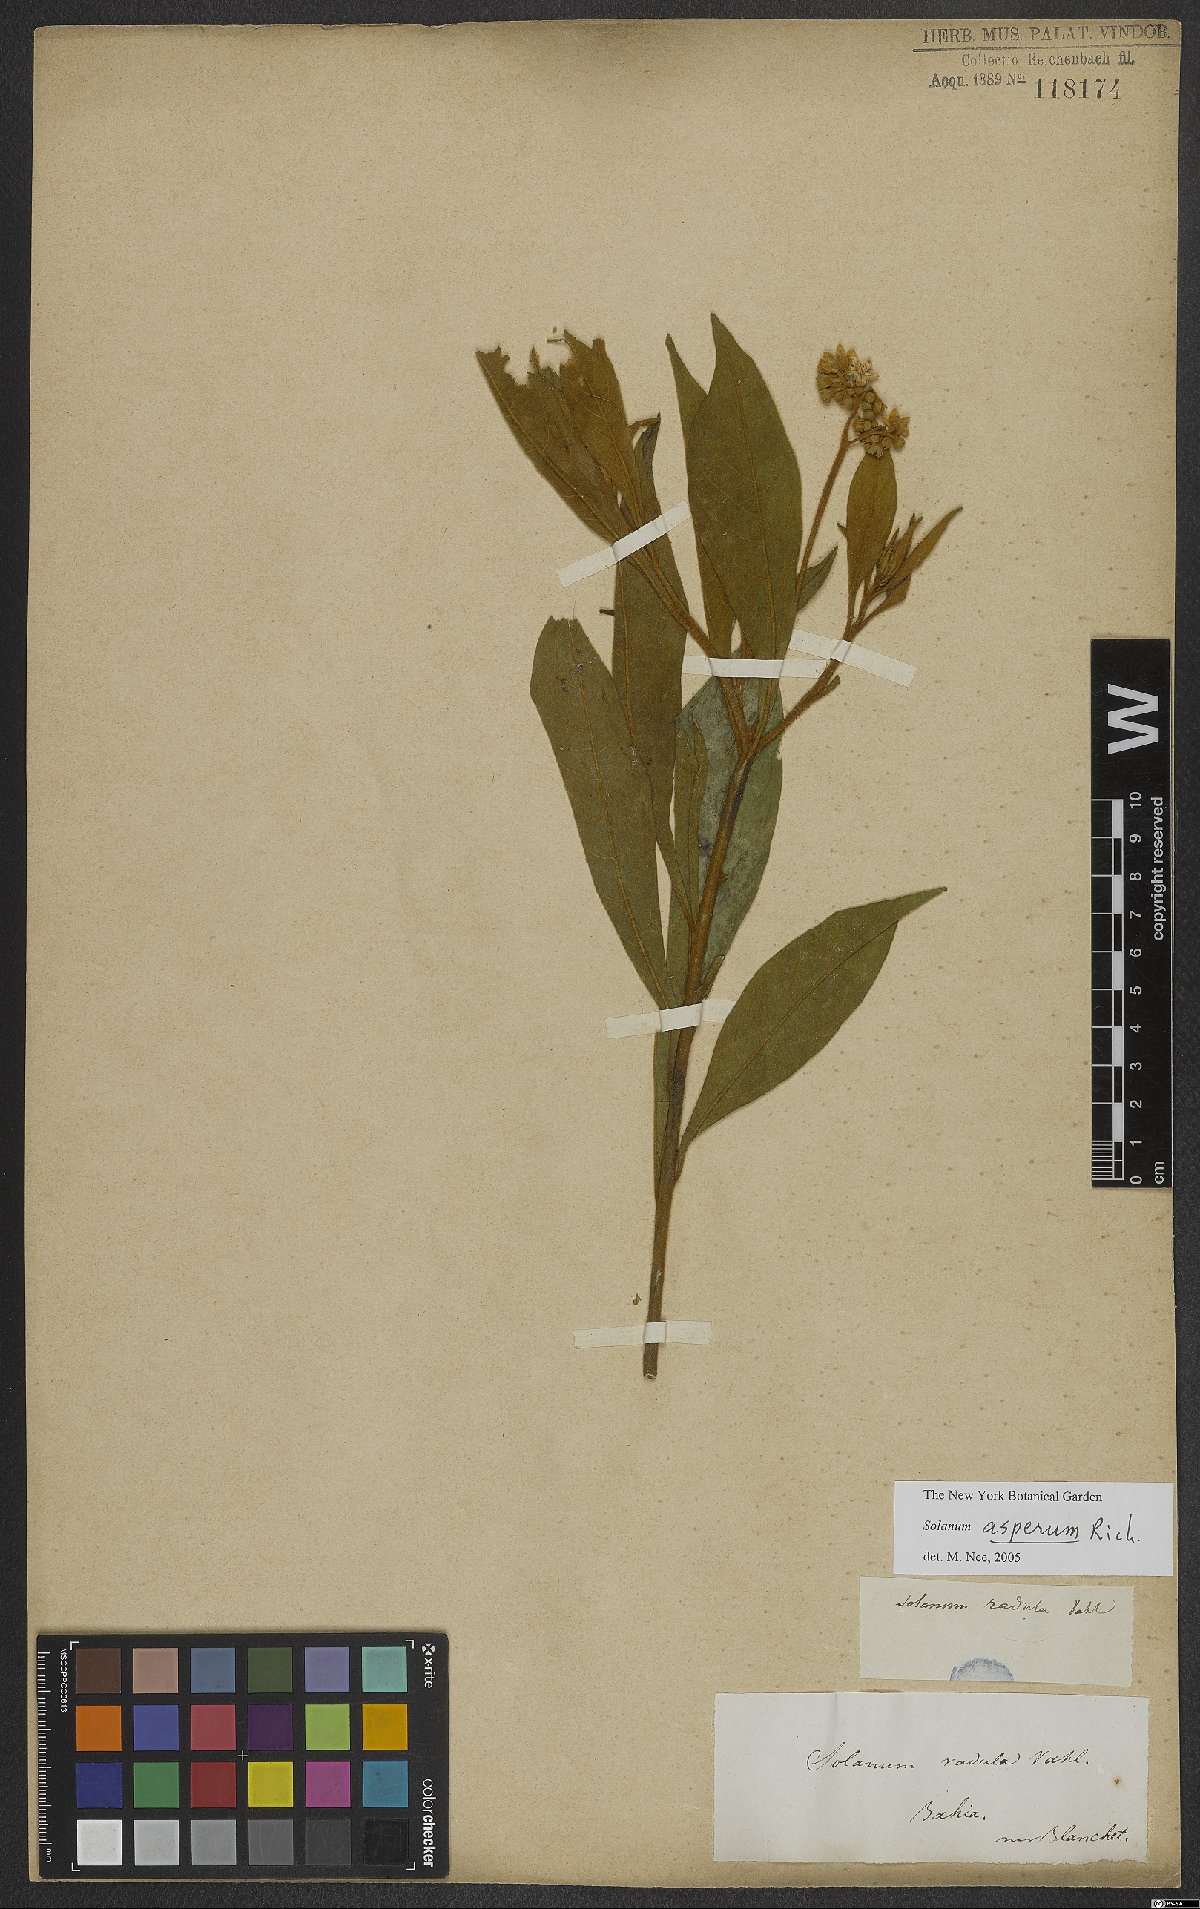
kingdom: Plantae
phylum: Tracheophyta
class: Magnoliopsida
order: Solanales
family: Solanaceae
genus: Solanum
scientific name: Solanum asperum
